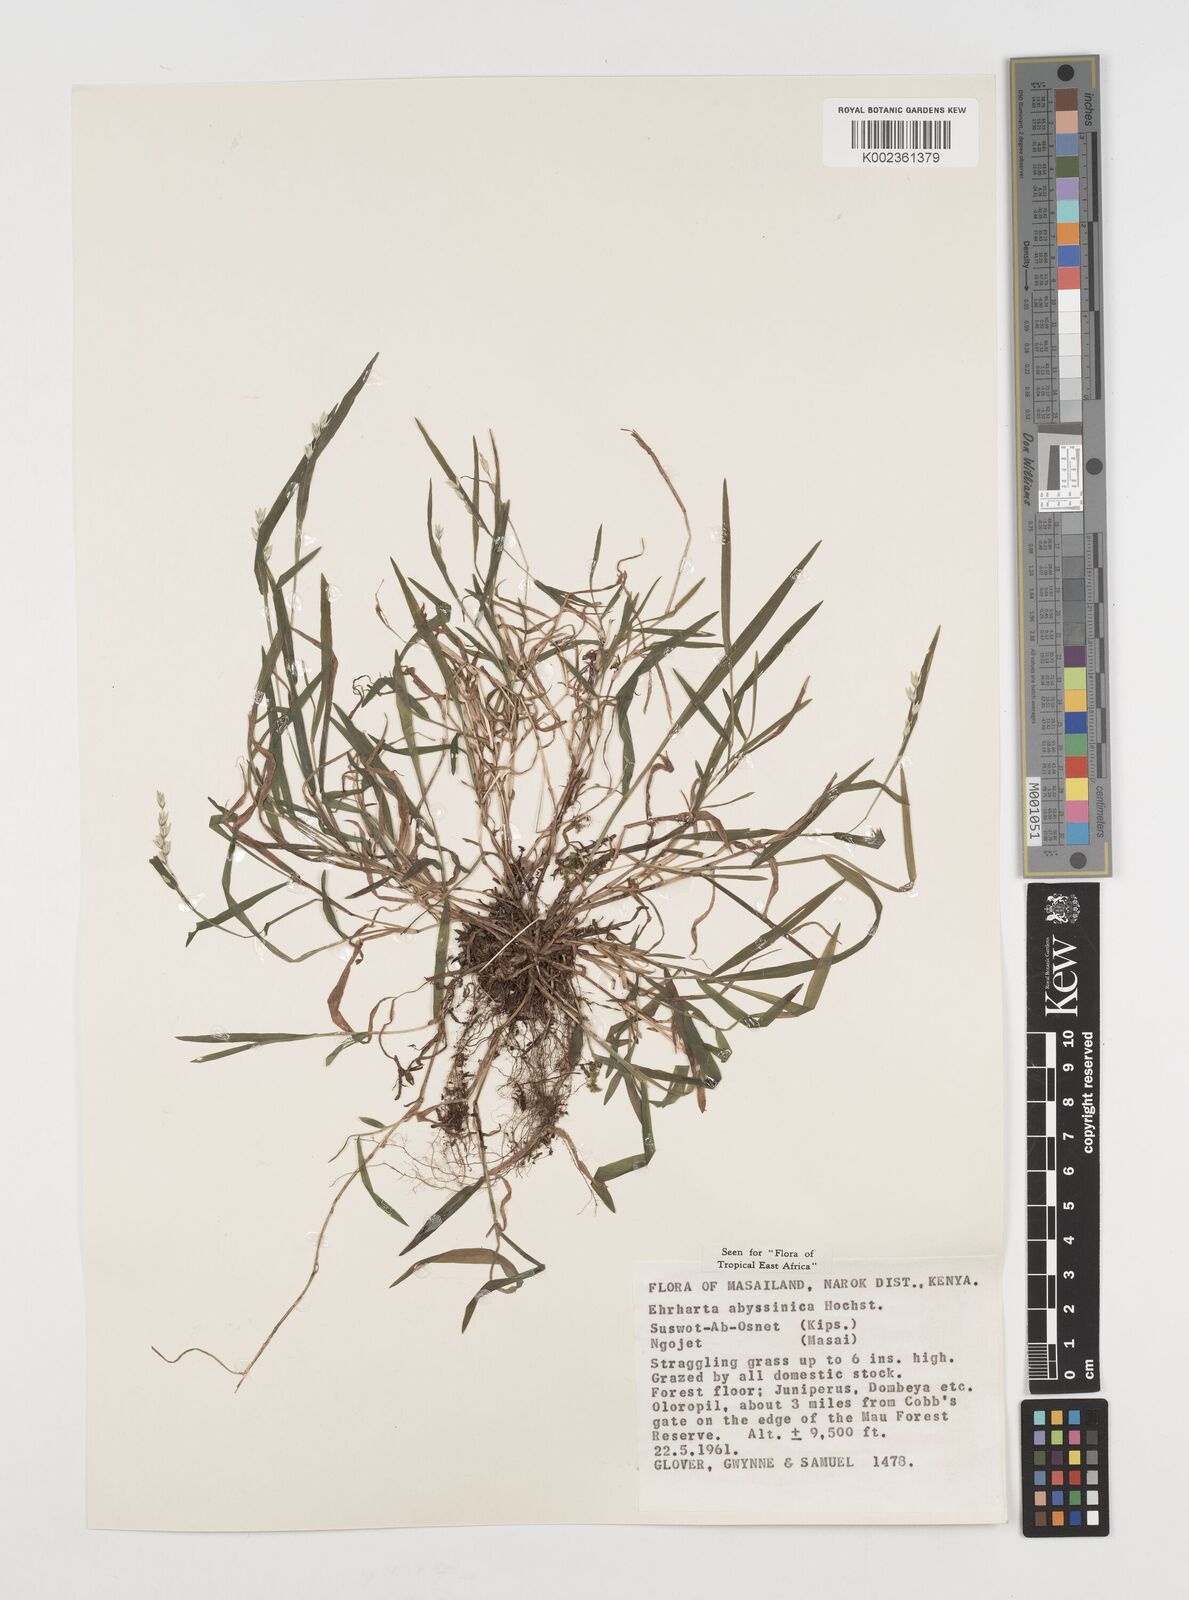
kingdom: Plantae
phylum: Tracheophyta
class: Liliopsida
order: Poales
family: Poaceae
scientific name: Poaceae
